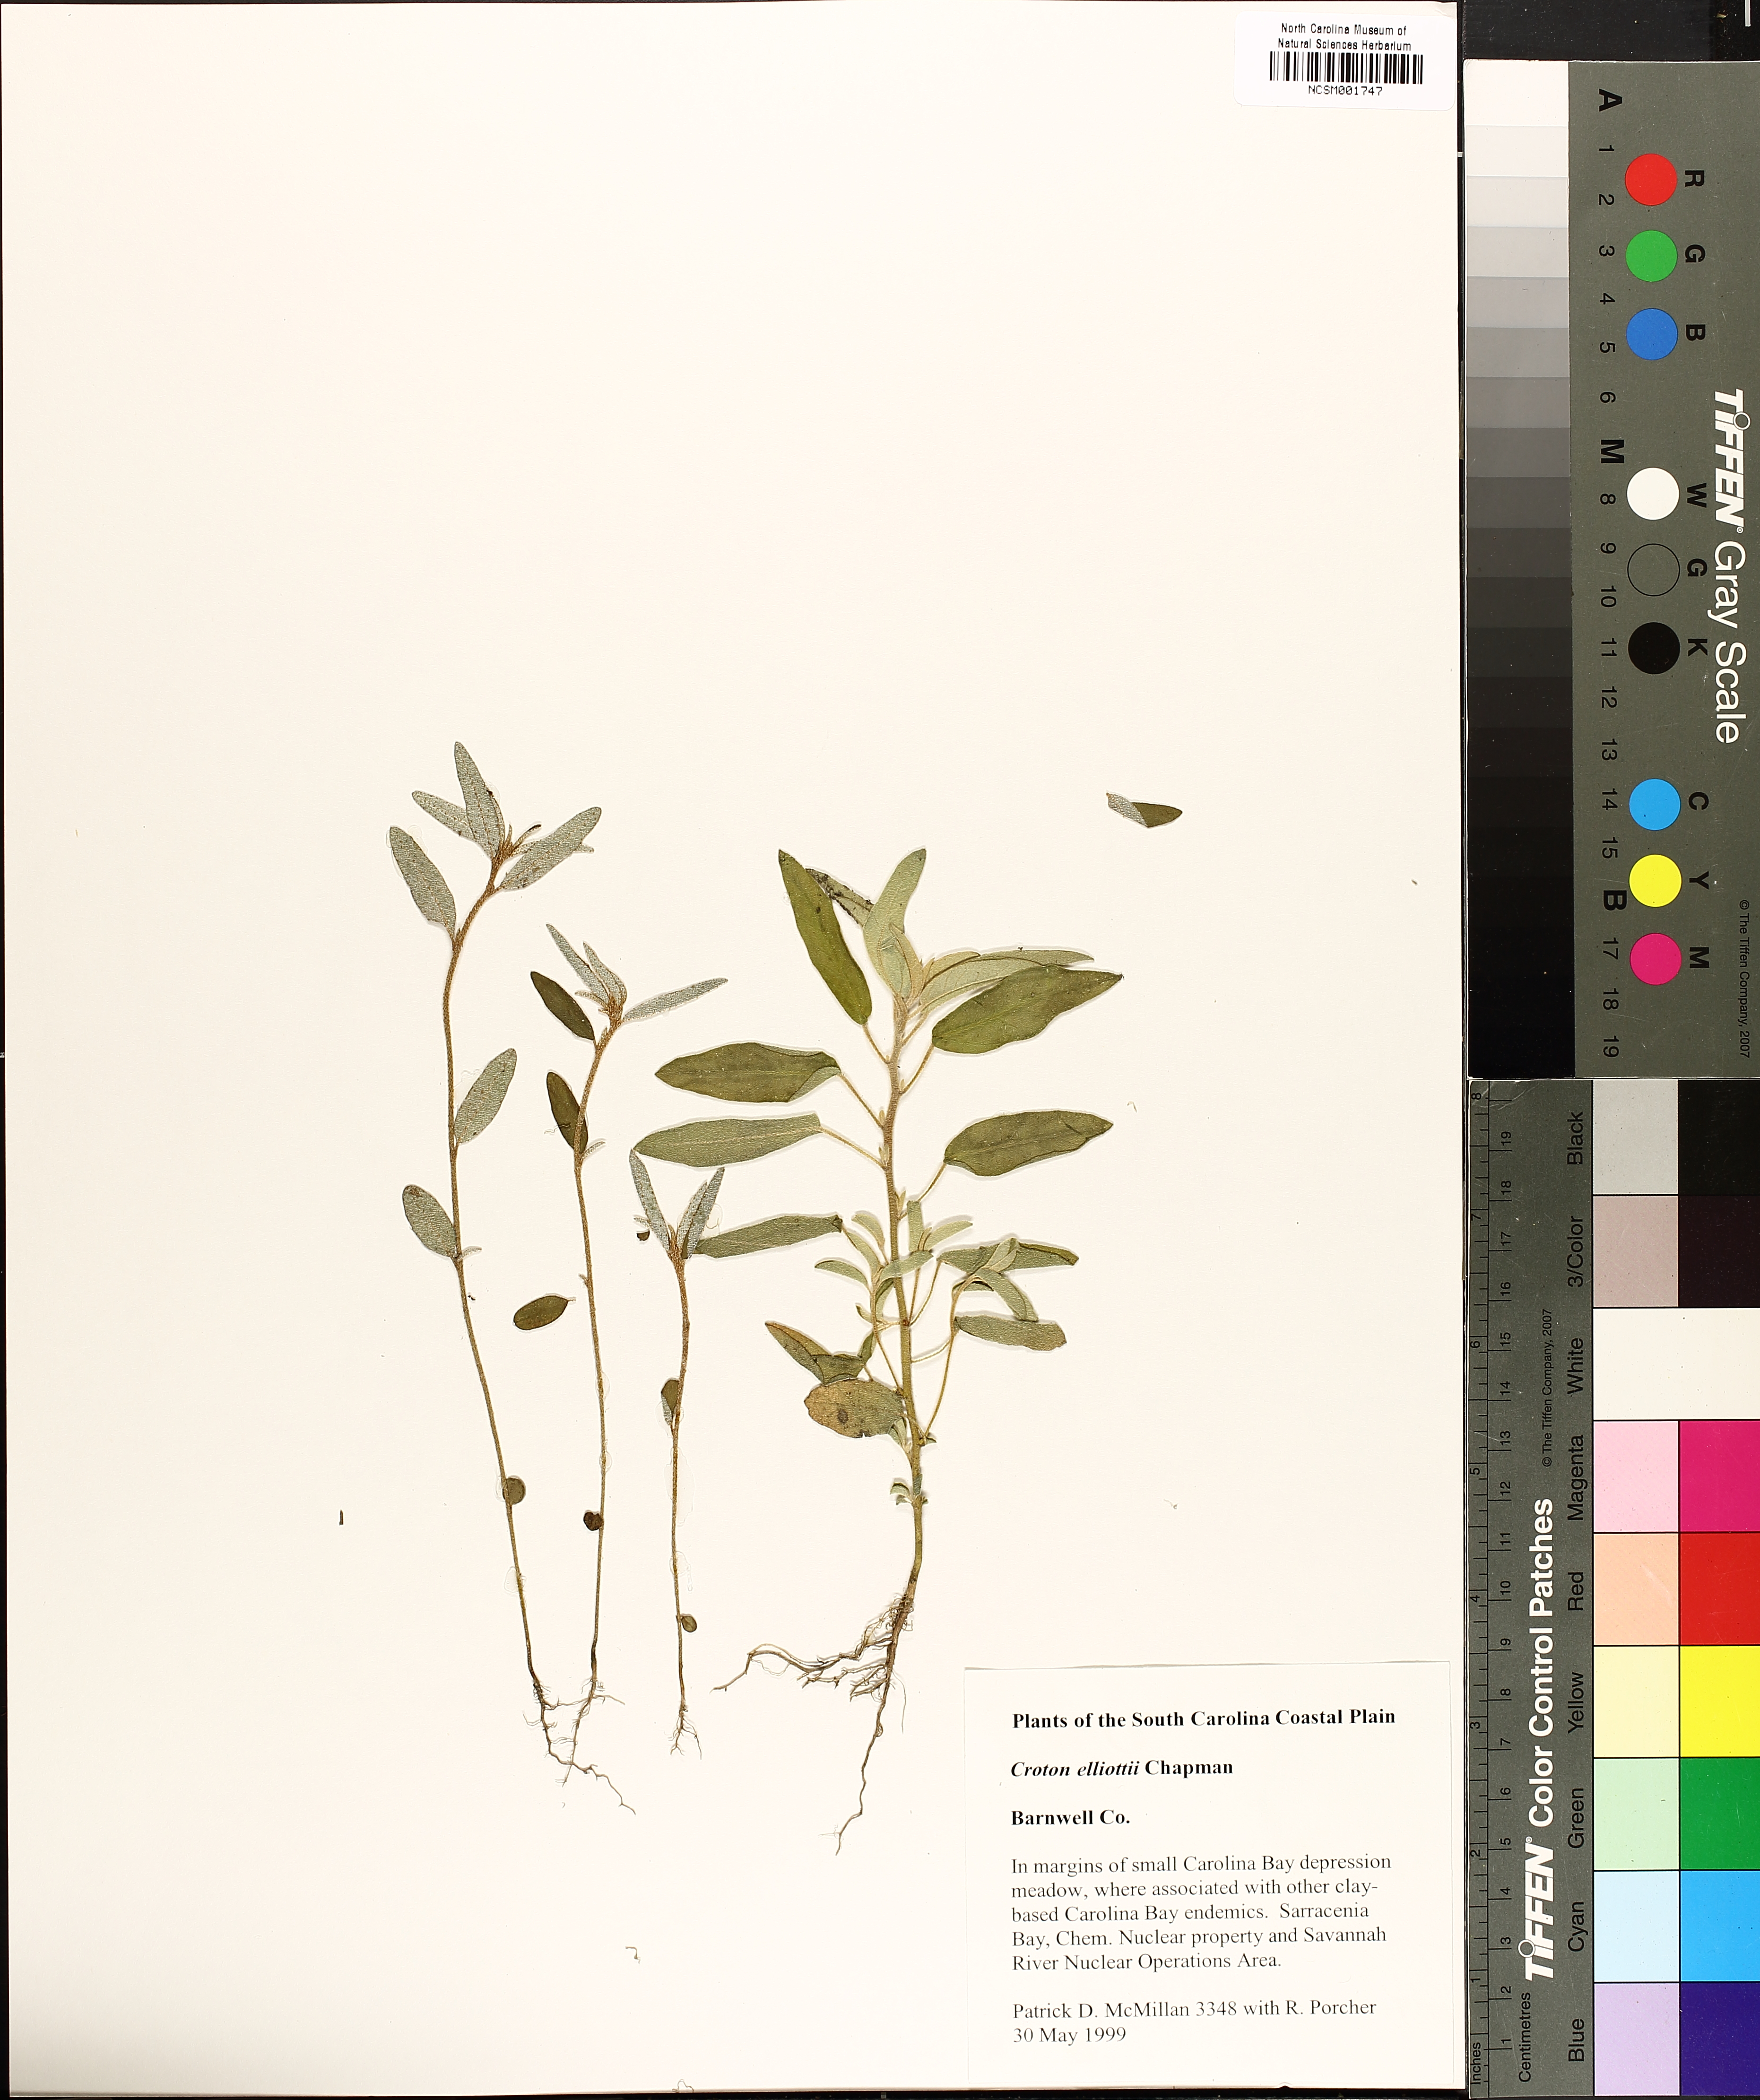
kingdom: Plantae
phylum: Tracheophyta
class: Magnoliopsida
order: Malpighiales
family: Euphorbiaceae
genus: Croton
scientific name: Croton elliottii
